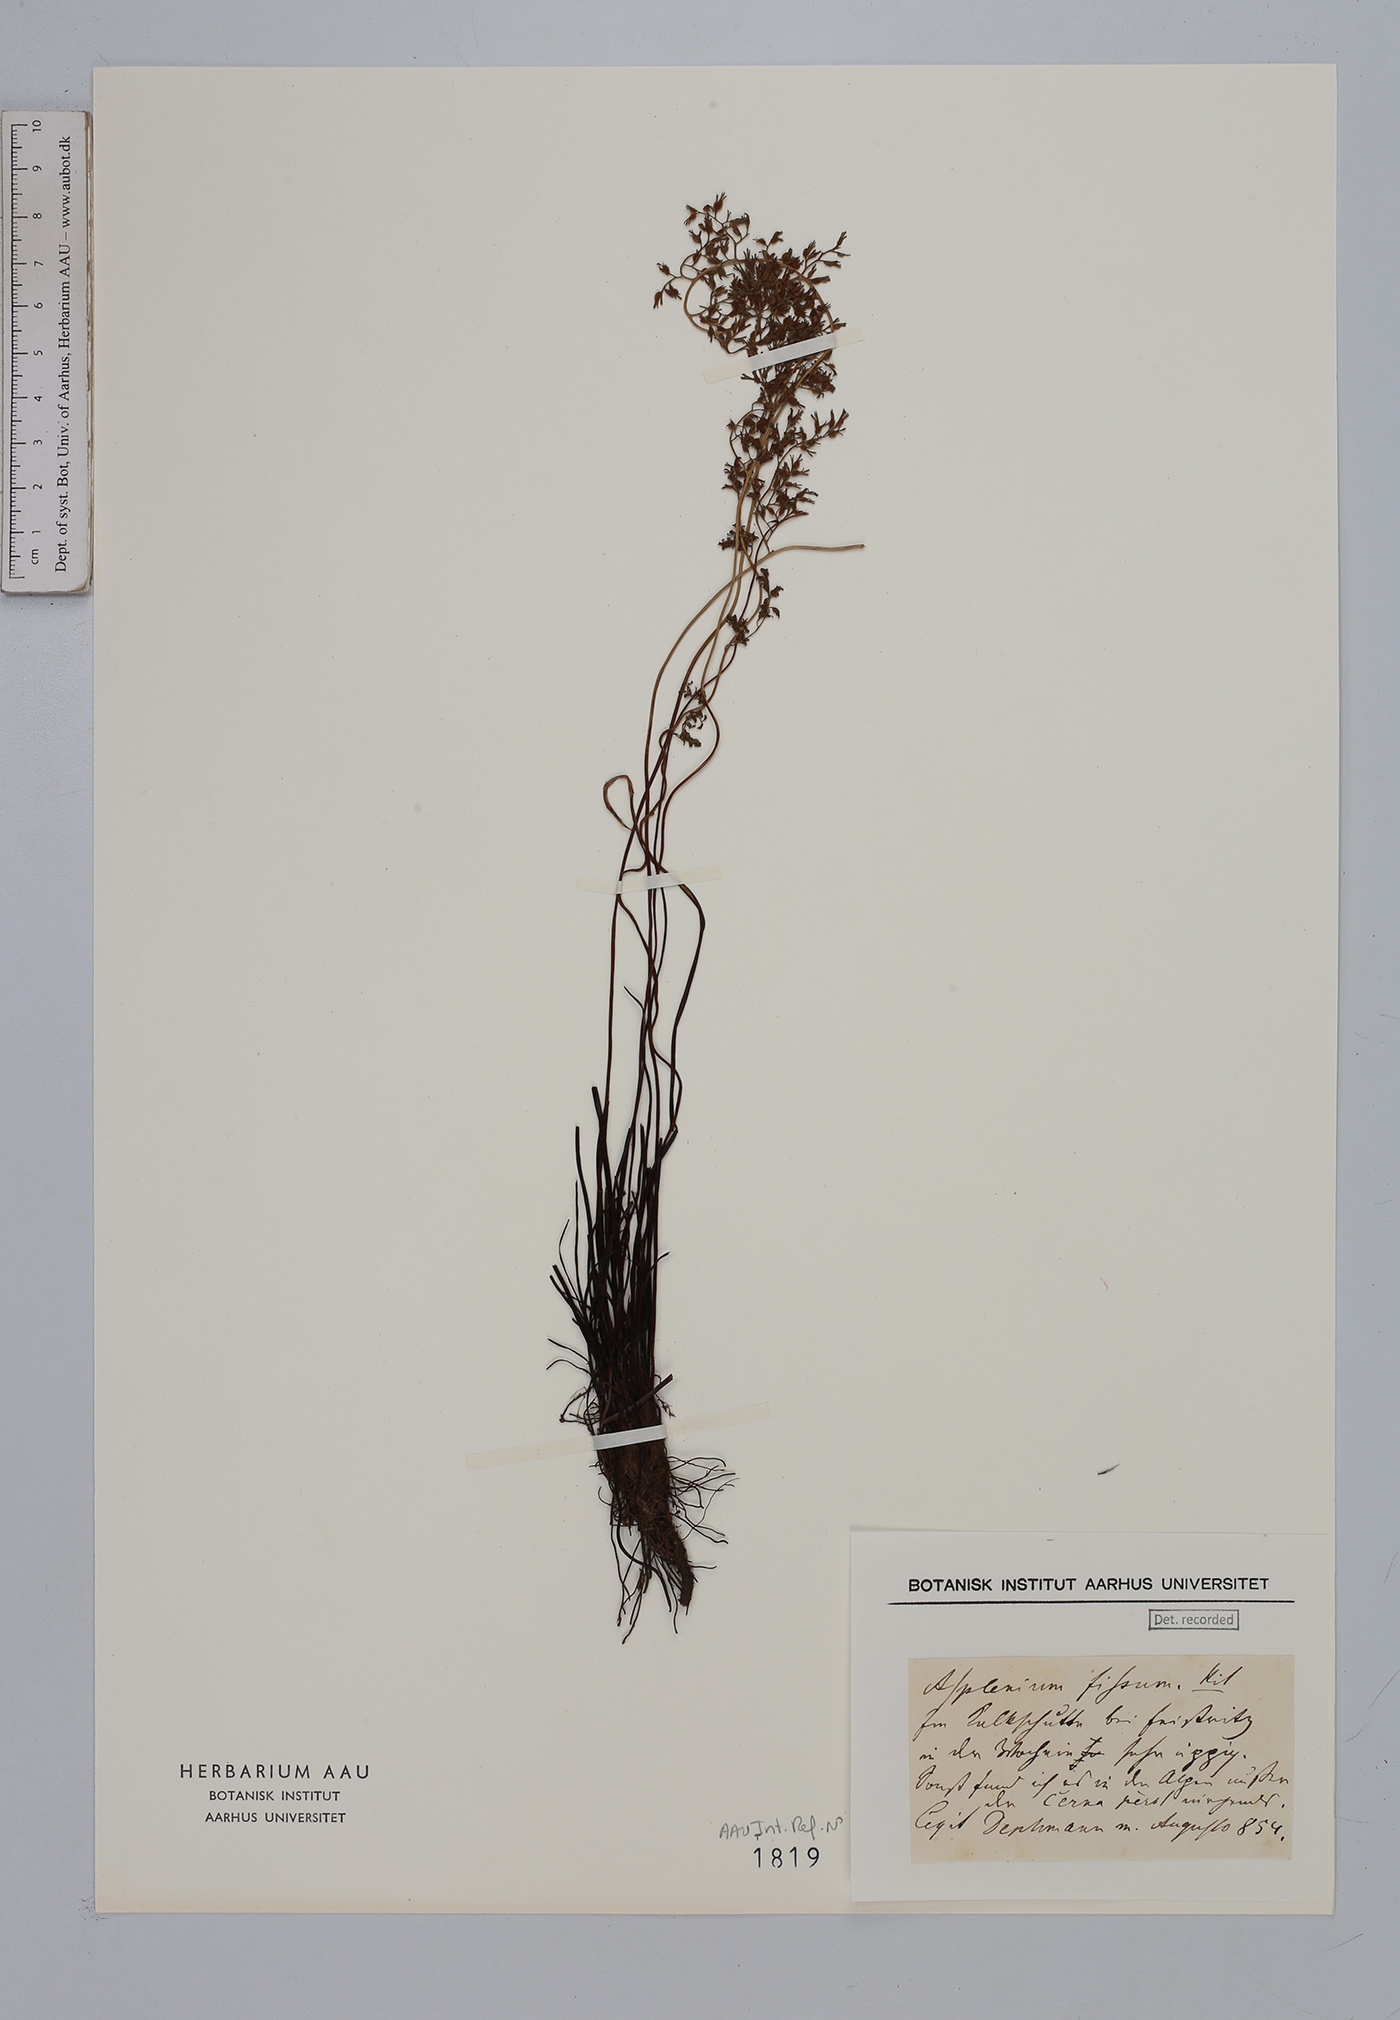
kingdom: Plantae
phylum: Tracheophyta
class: Polypodiopsida
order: Polypodiales
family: Aspleniaceae
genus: Asplenium
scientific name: Asplenium fissum
